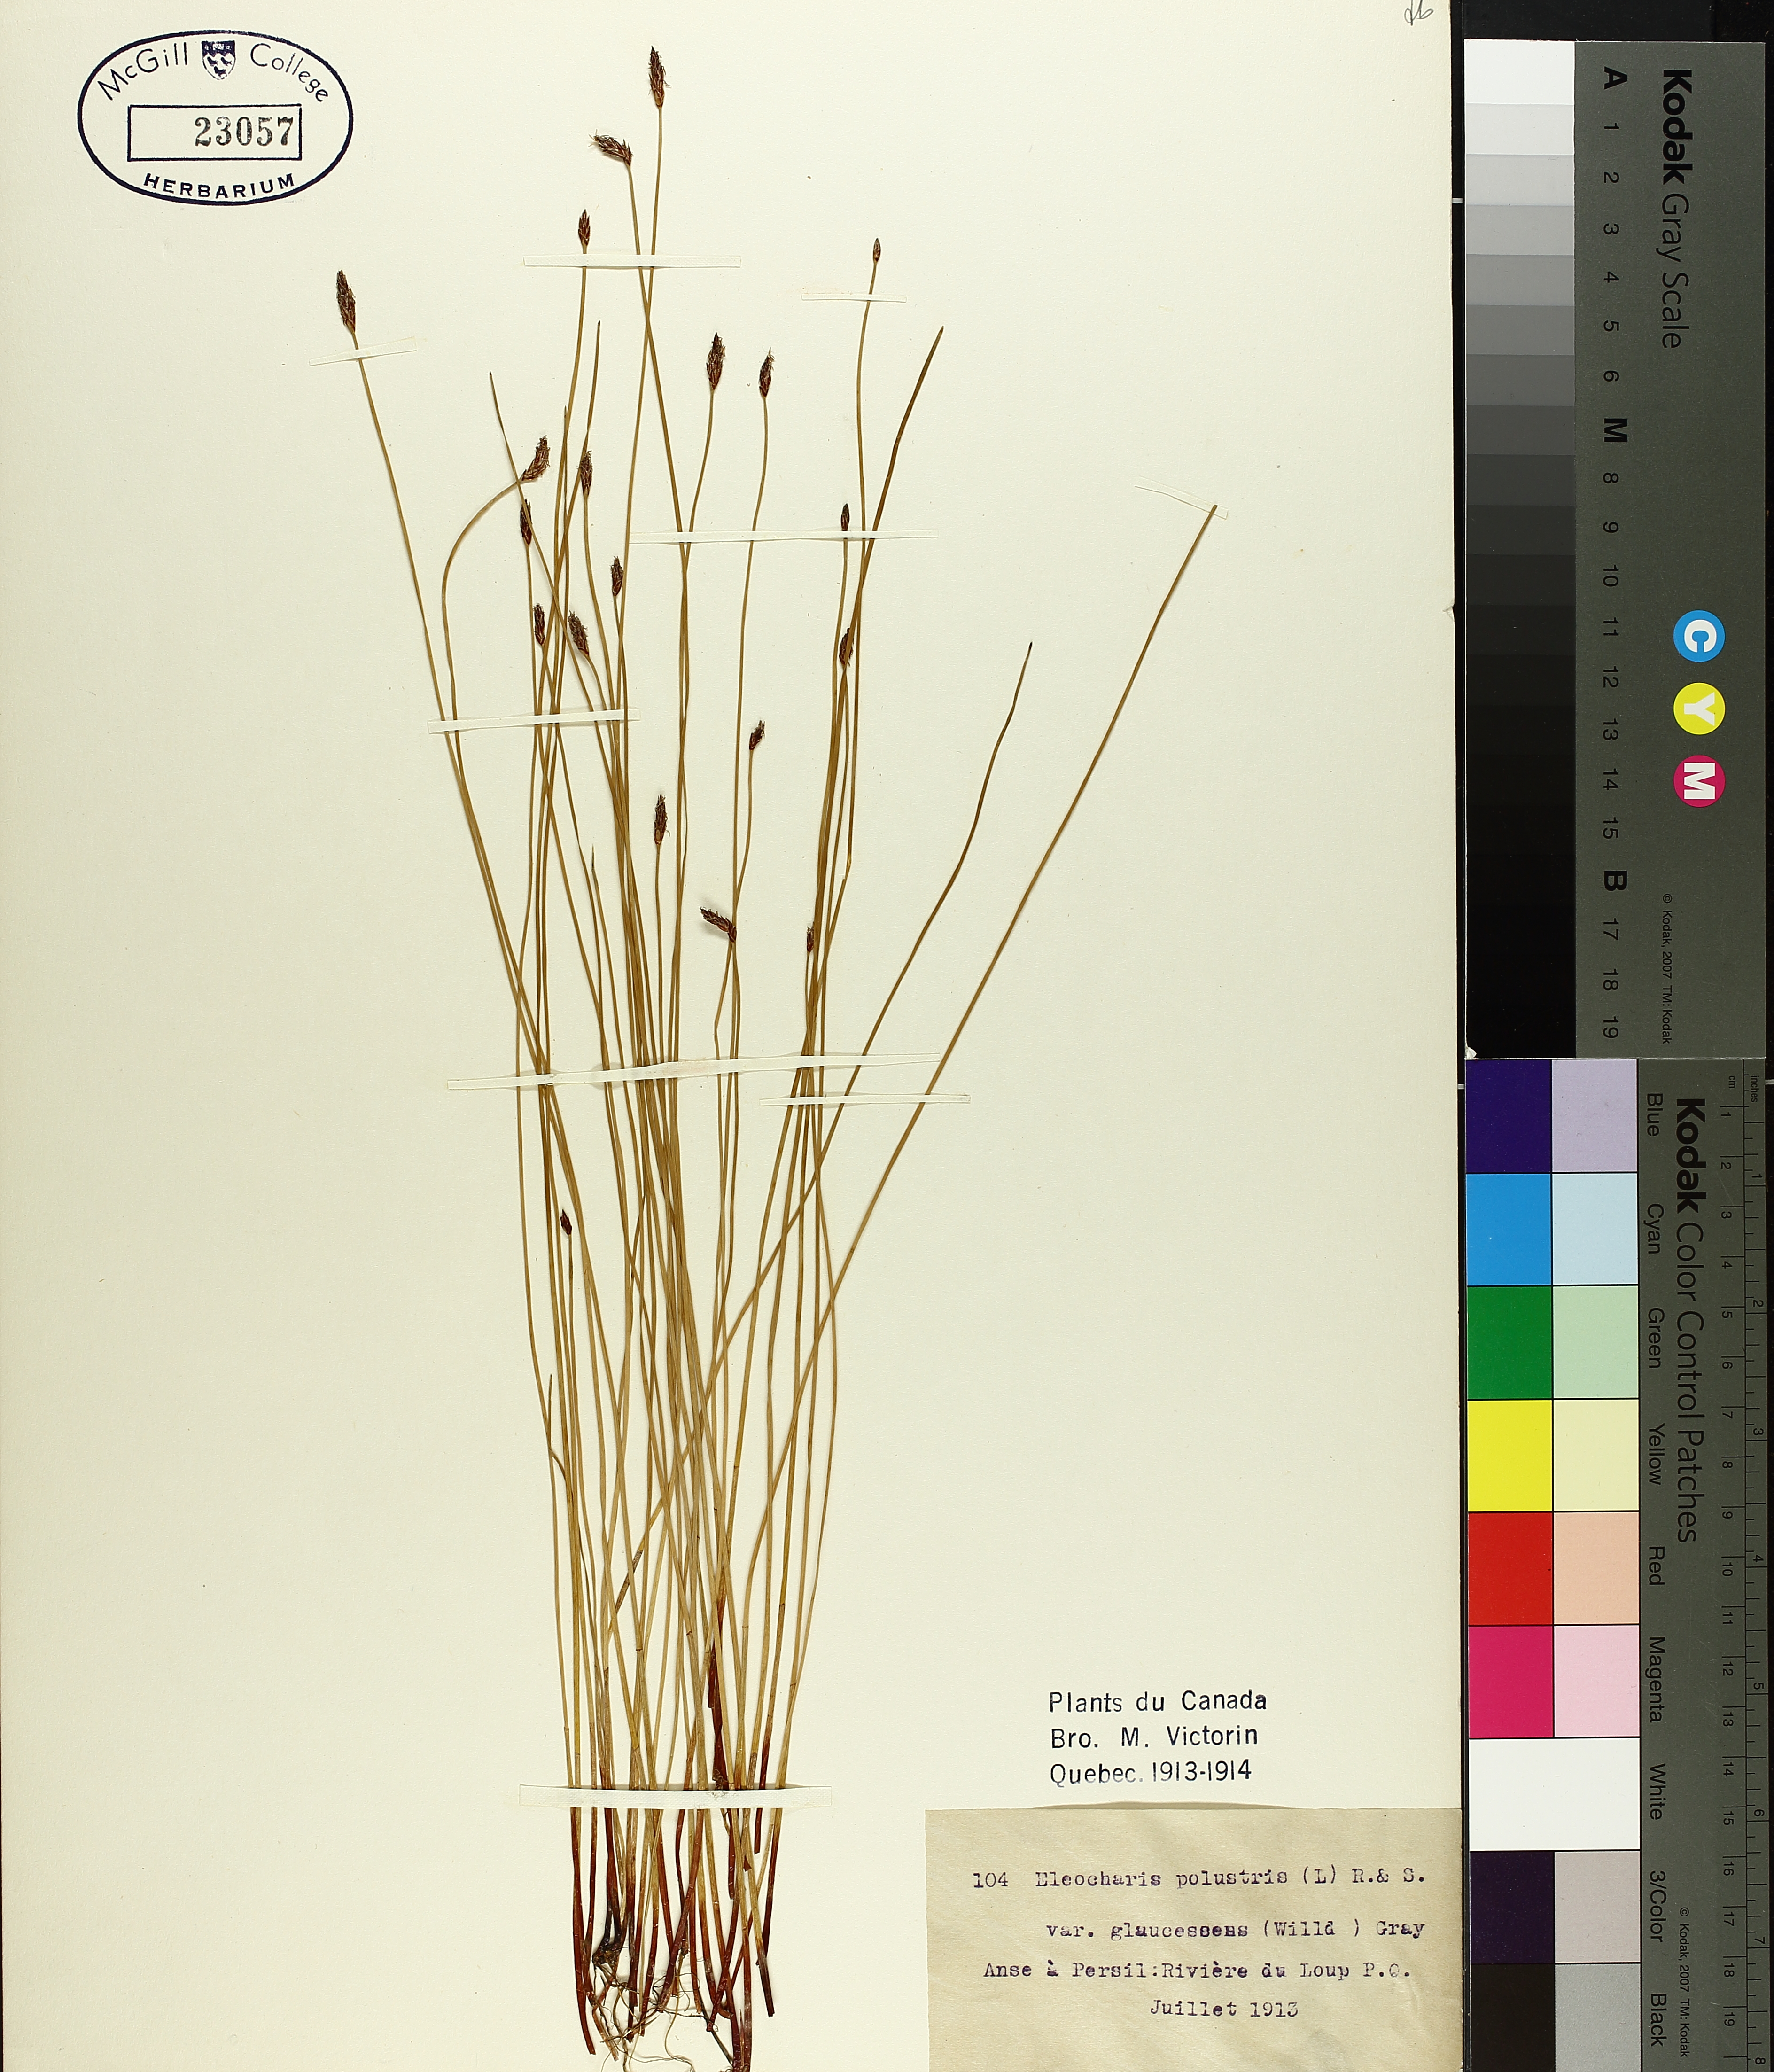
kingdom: Plantae
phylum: Tracheophyta
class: Liliopsida
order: Poales
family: Cyperaceae
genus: Eleocharis
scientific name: Eleocharis palustris
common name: Common spike-rush
